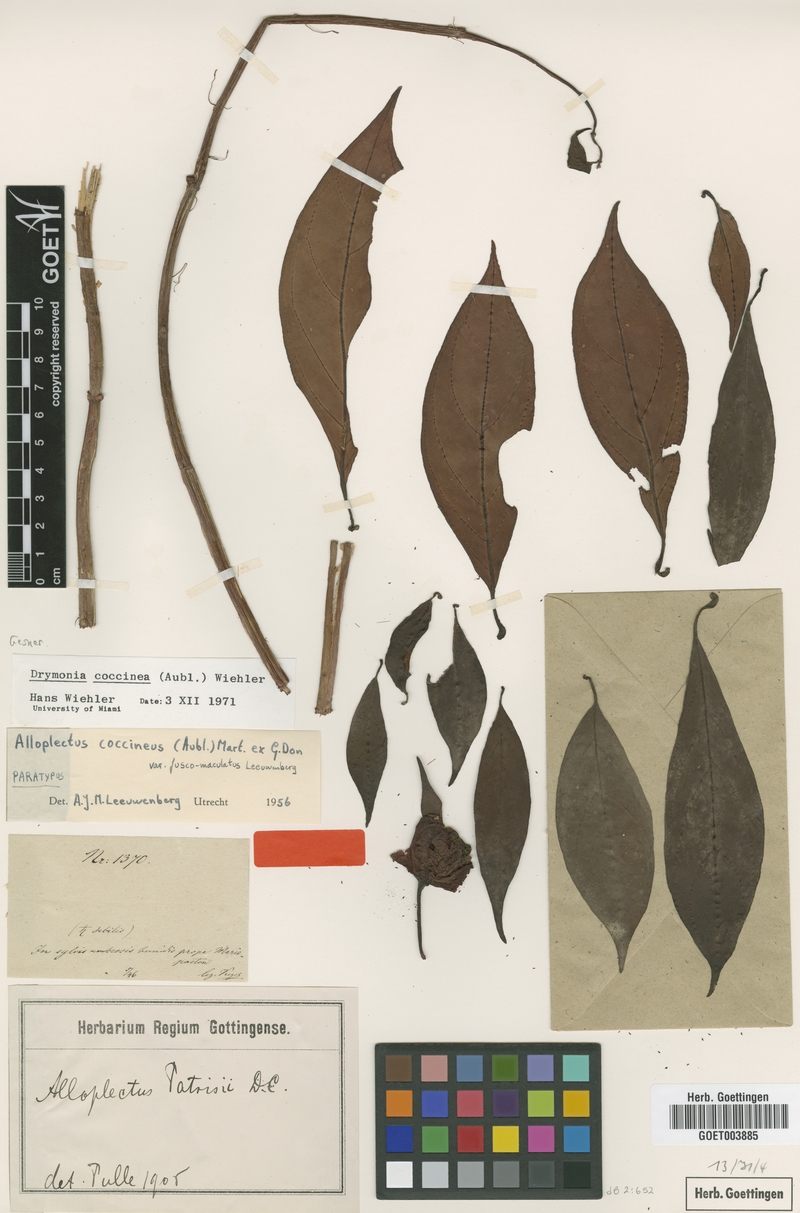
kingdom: Plantae
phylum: Tracheophyta
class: Magnoliopsida
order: Lamiales
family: Gesneriaceae
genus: Drymonia
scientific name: Drymonia coccinea
